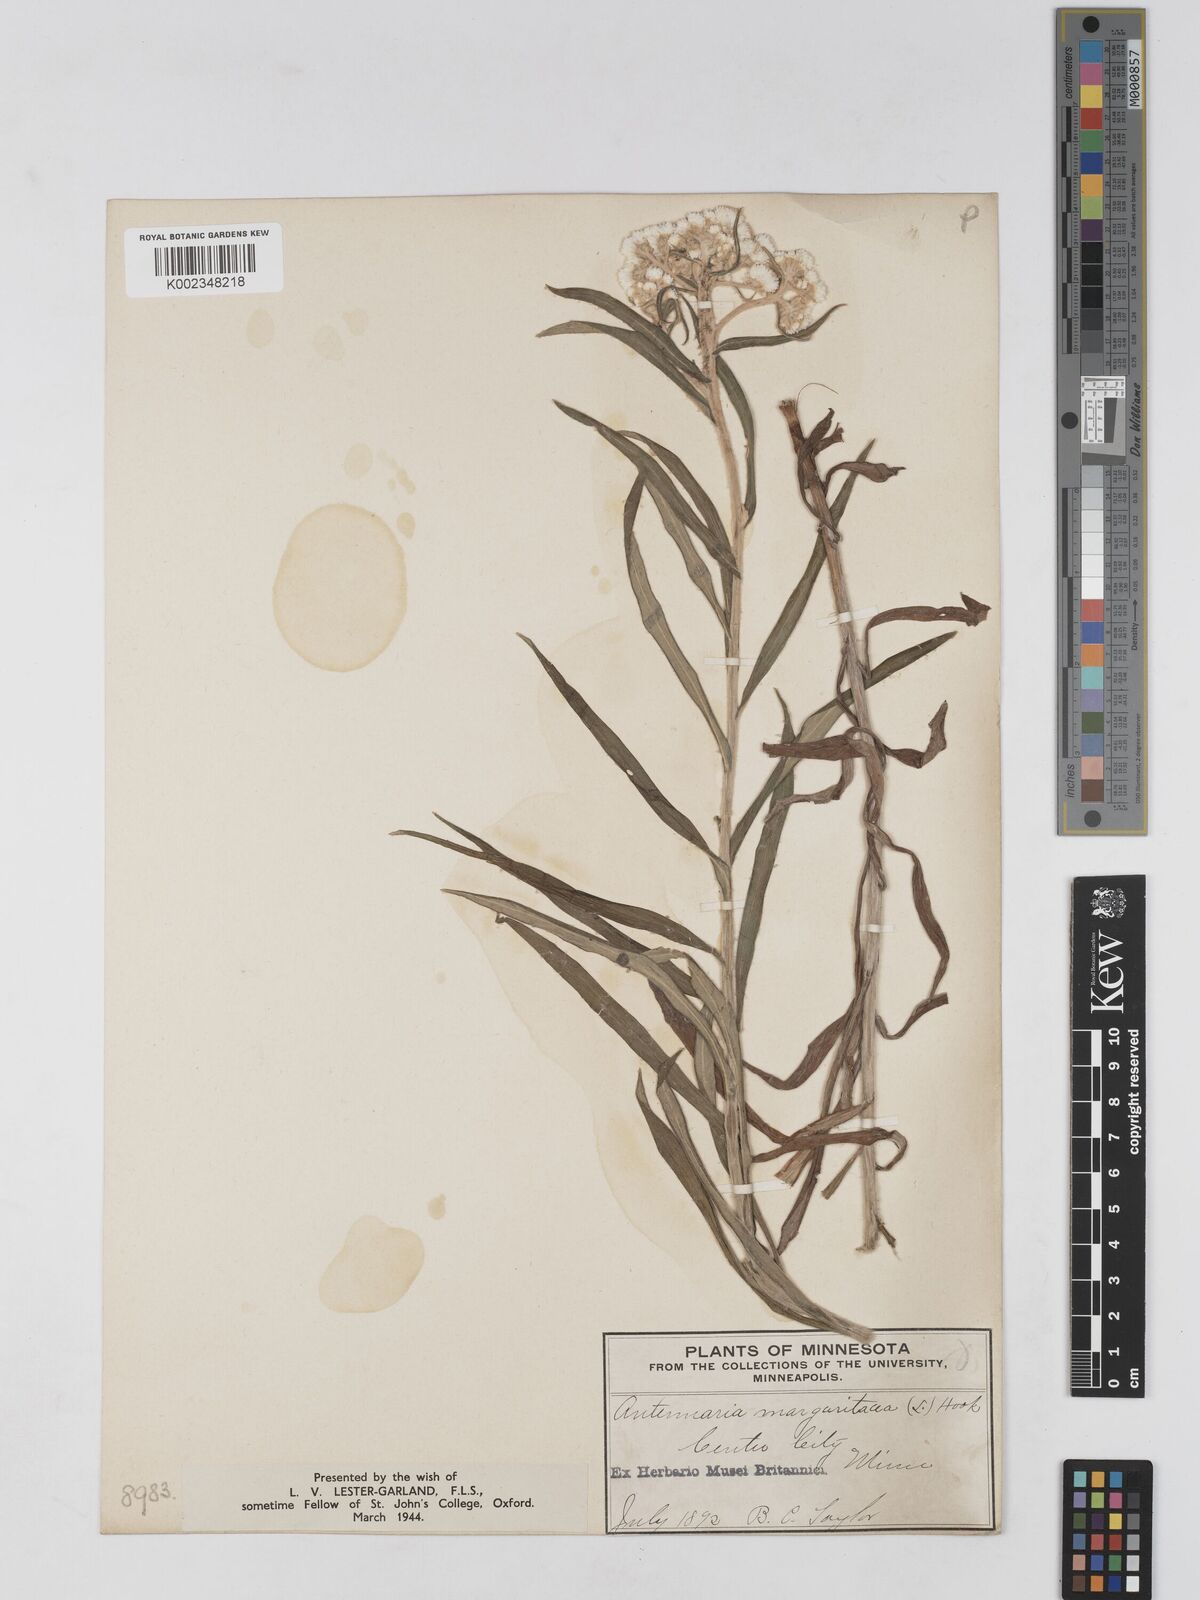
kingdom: Plantae
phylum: Tracheophyta
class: Magnoliopsida
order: Asterales
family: Asteraceae
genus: Anaphalis
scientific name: Anaphalis margaritacea
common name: Pearly everlasting
